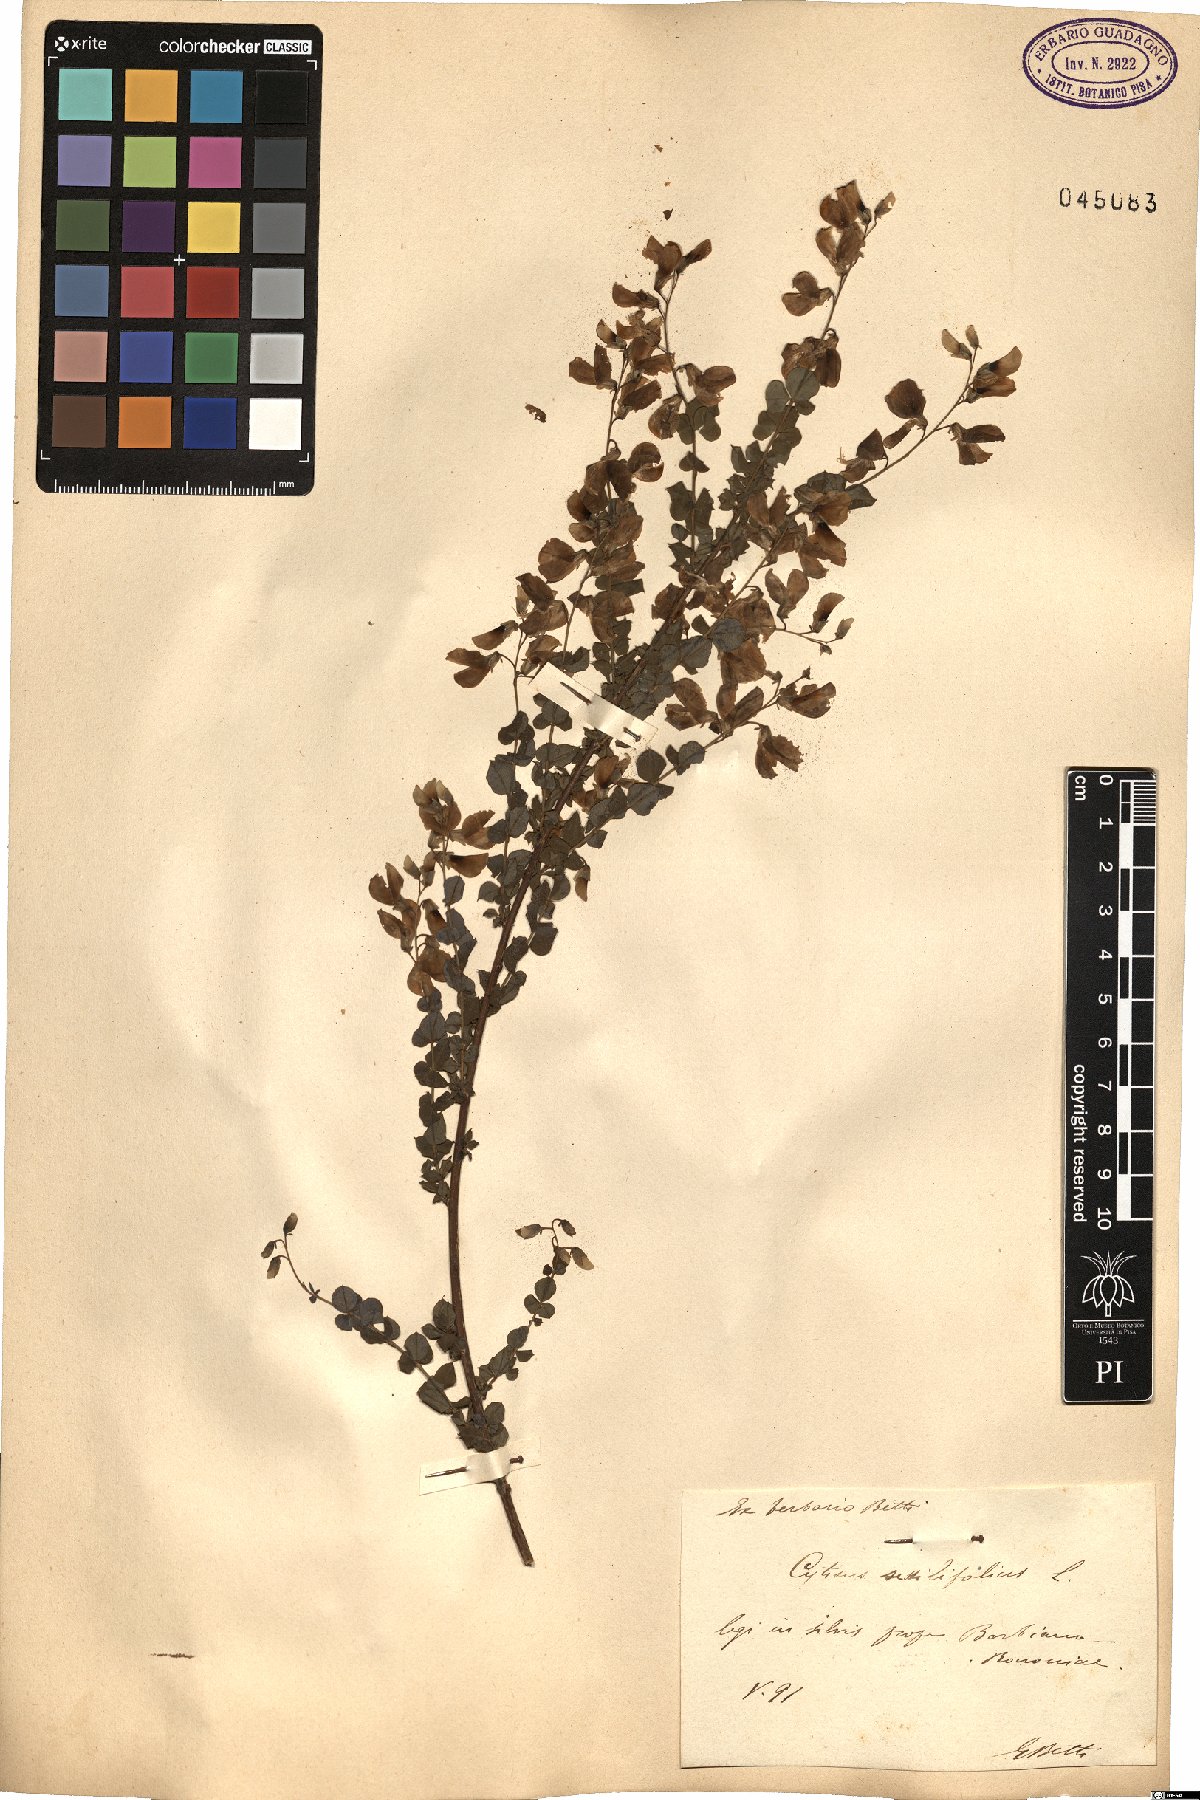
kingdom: Plantae
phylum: Tracheophyta
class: Magnoliopsida
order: Fabales
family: Fabaceae
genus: Cytisophyllum
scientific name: Cytisophyllum sessilifolium
